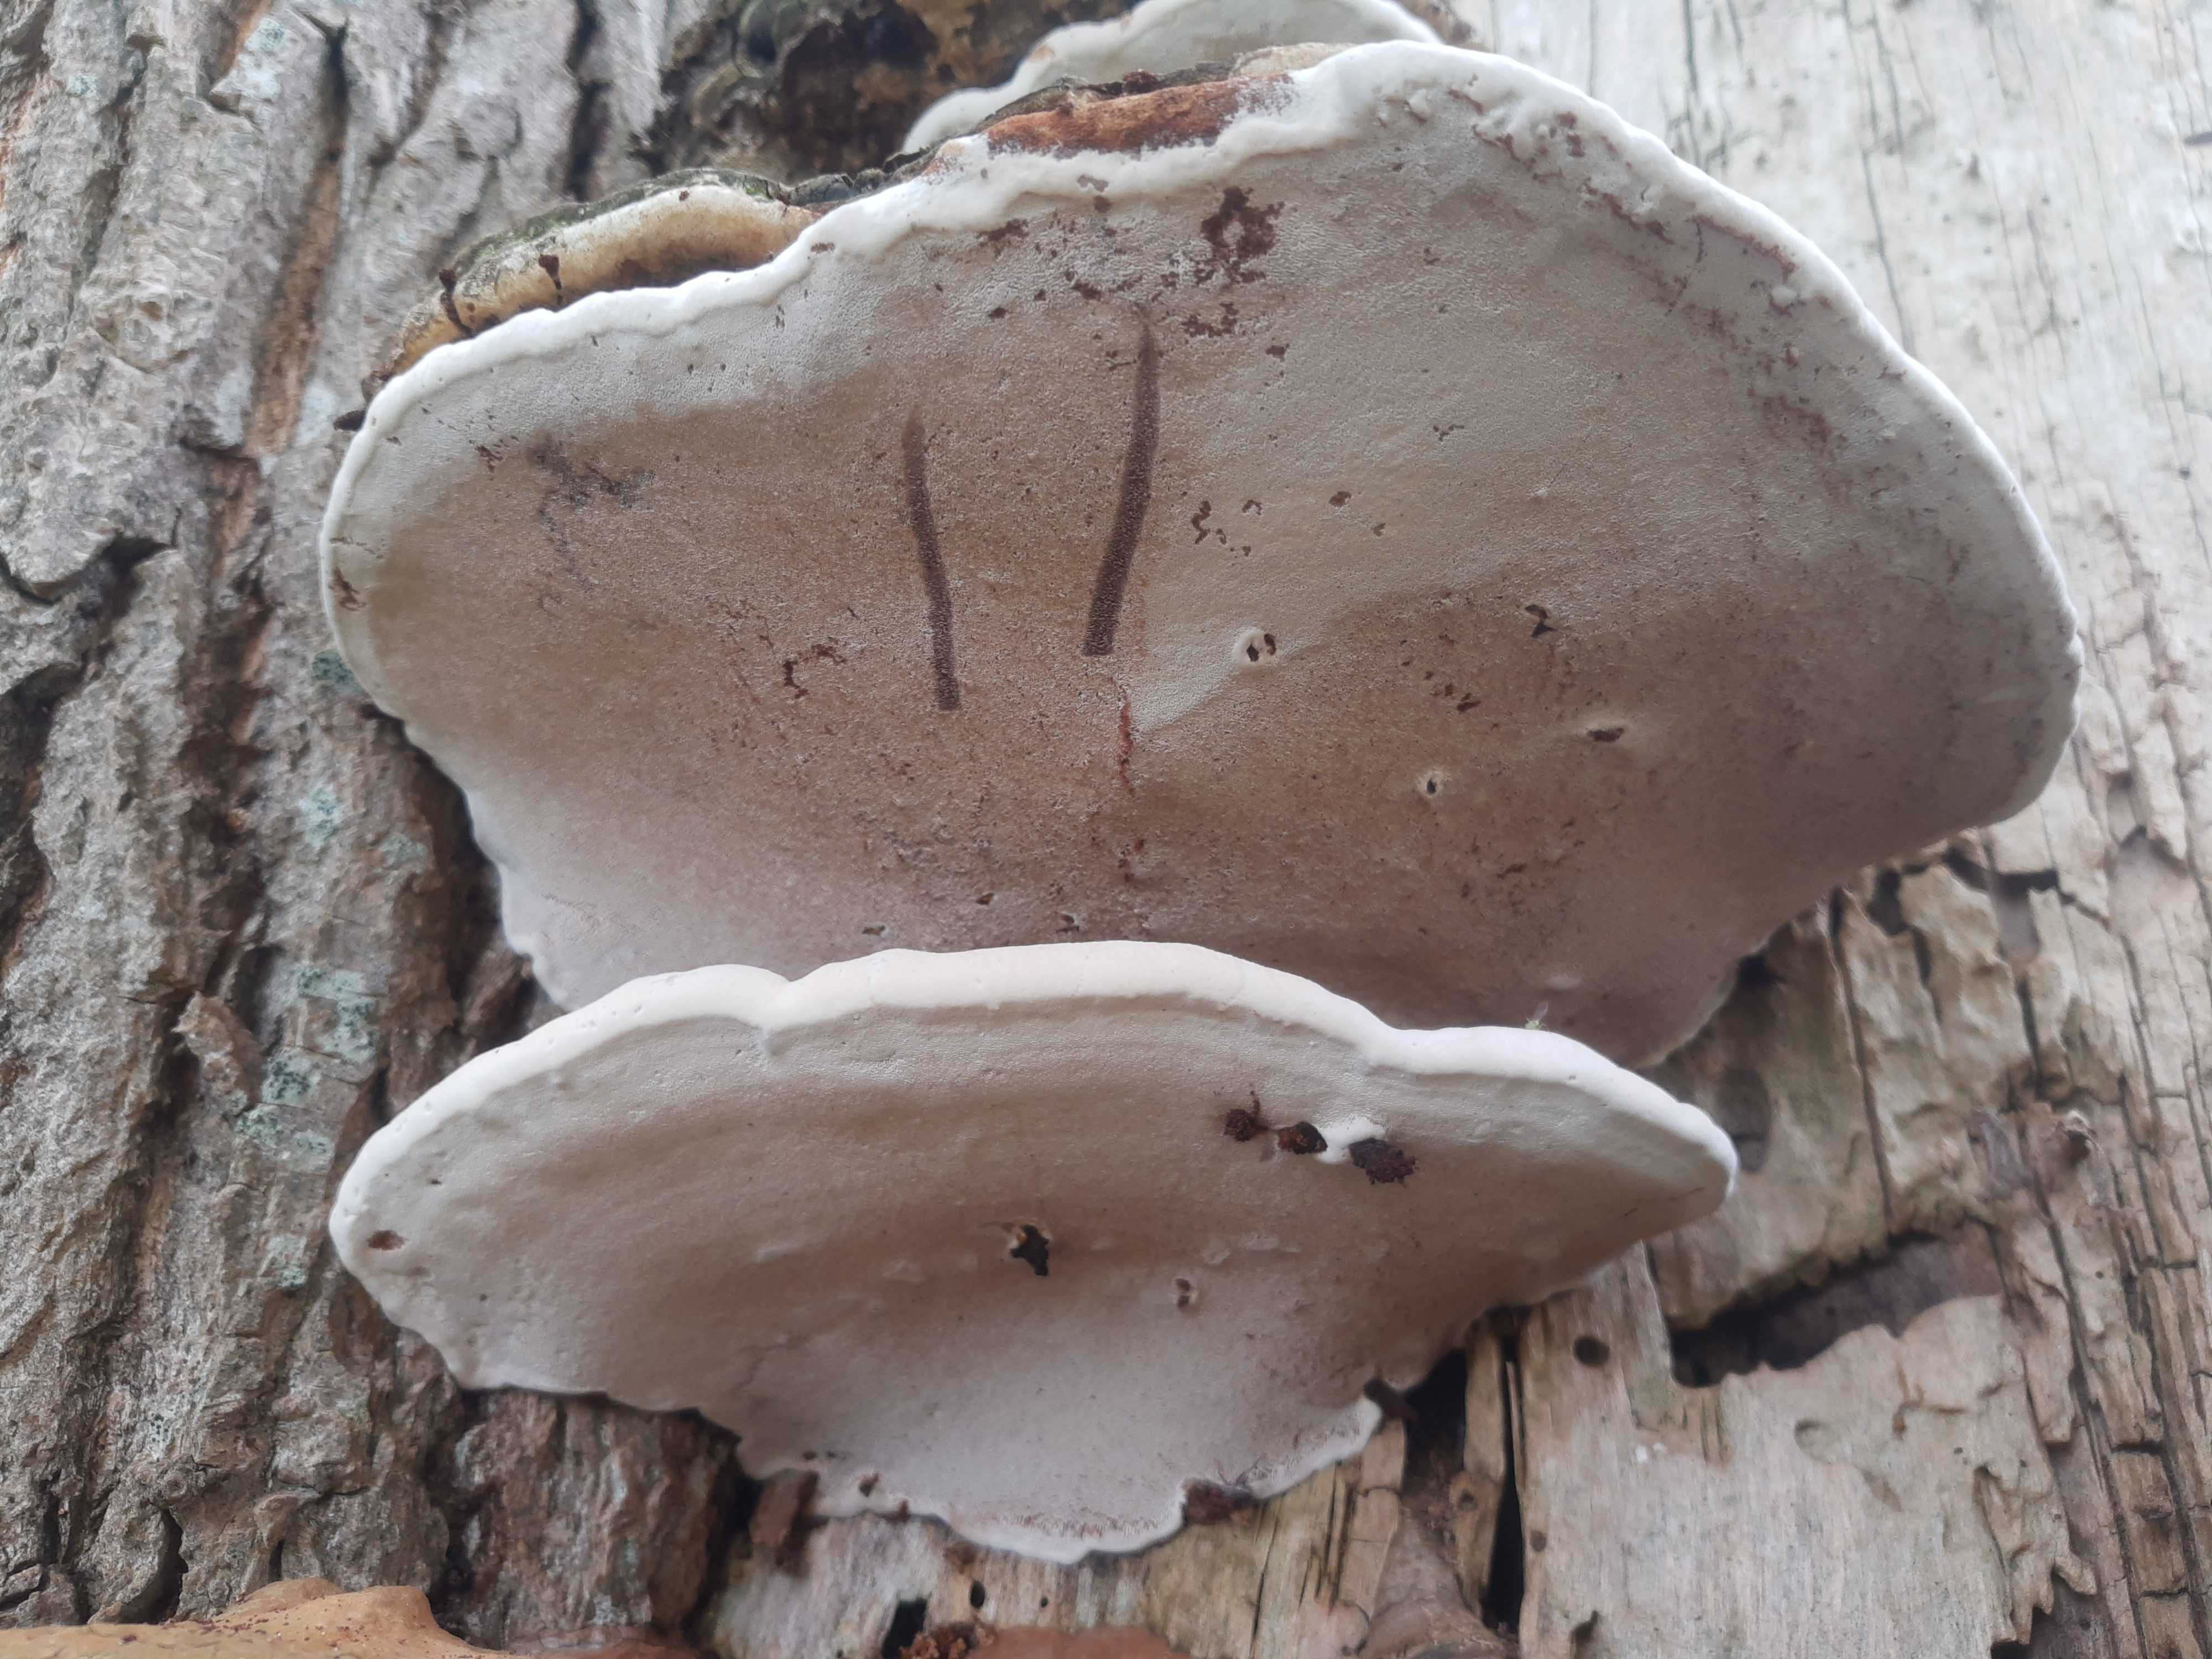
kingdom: Fungi
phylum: Basidiomycota
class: Agaricomycetes
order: Polyporales
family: Polyporaceae
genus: Ganoderma
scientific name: Ganoderma applanatum
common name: flad lakporesvamp
